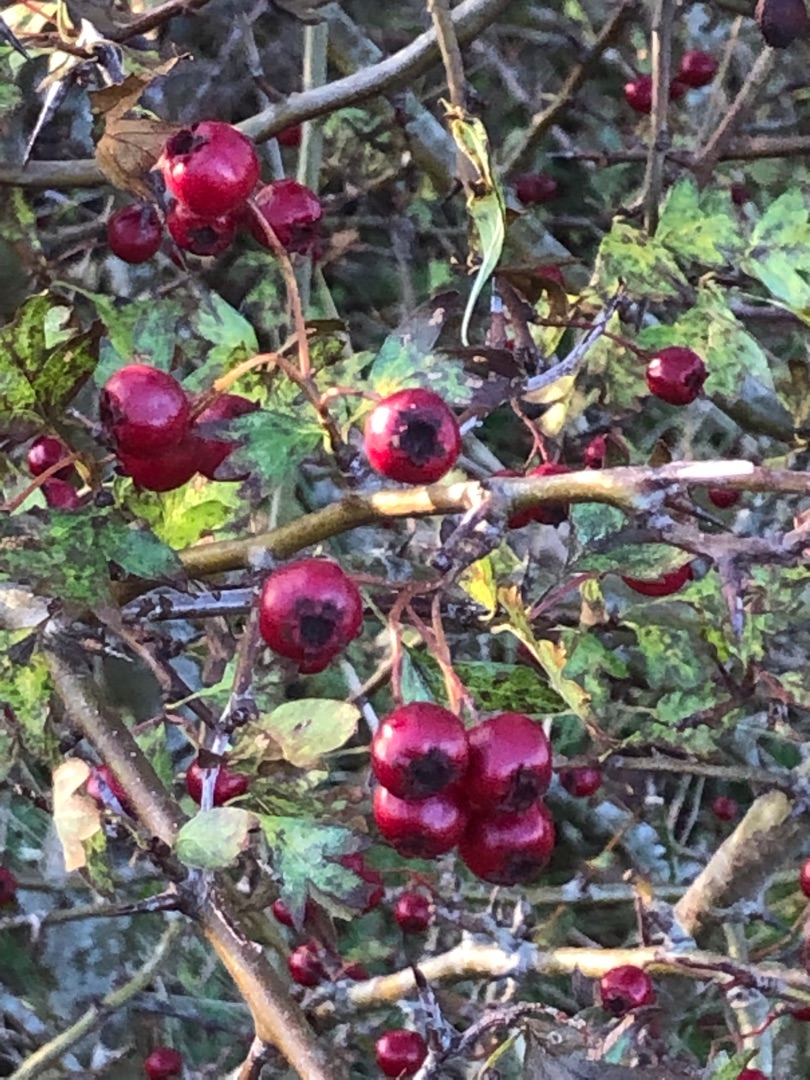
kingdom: Plantae
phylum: Tracheophyta
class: Magnoliopsida
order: Rosales
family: Rosaceae
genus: Crataegus
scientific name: Crataegus
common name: Hvidtjørnslægten
